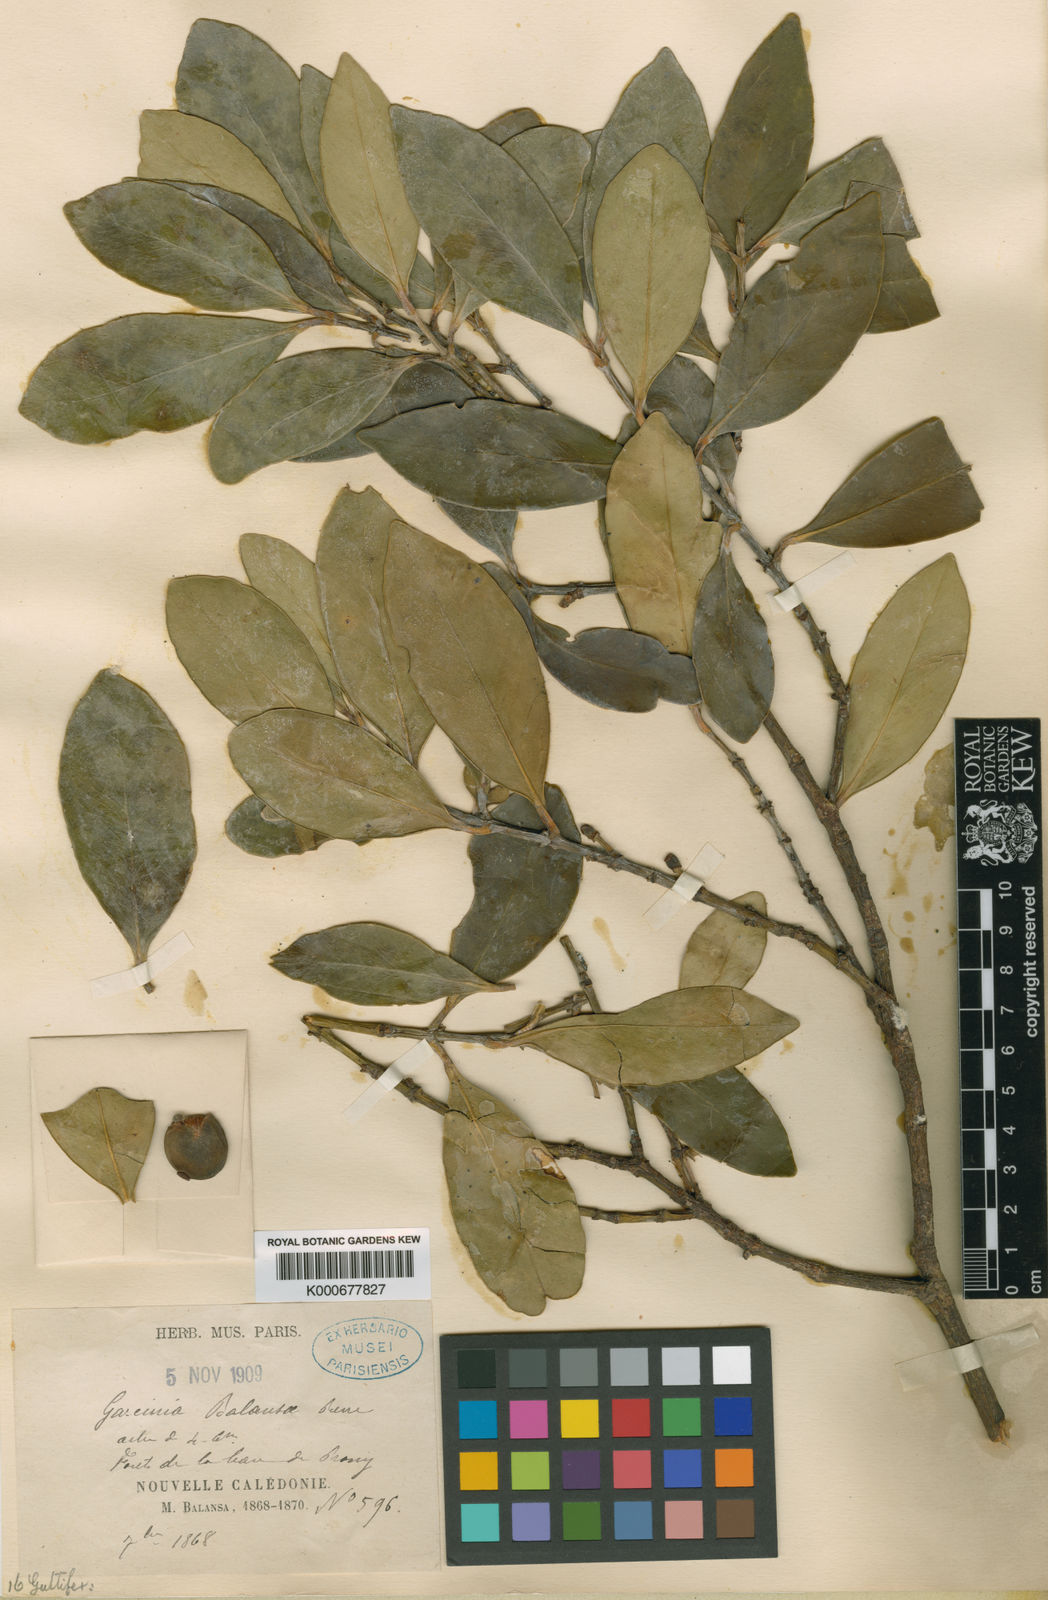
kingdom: Plantae
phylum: Tracheophyta
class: Magnoliopsida
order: Malpighiales
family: Clusiaceae
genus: Garcinia
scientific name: Garcinia balansae
